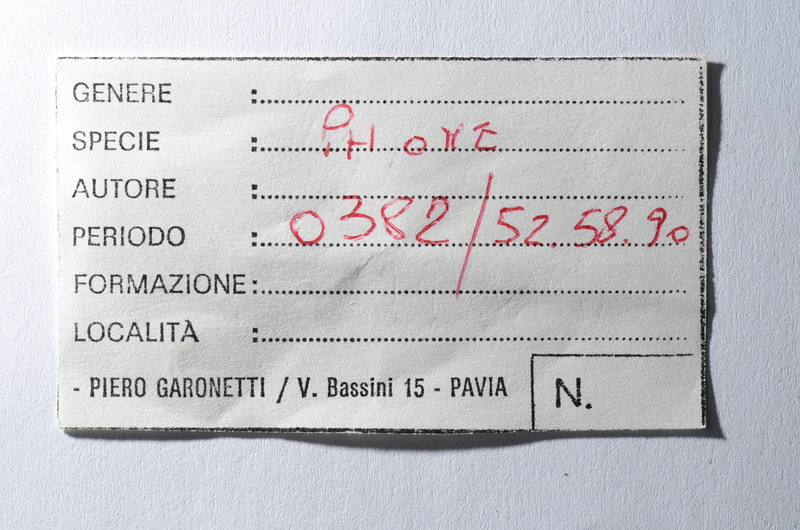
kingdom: Animalia
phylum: Chordata
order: Syngnathiformes
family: Syngnathidae
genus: Syngnathus
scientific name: Syngnathus
